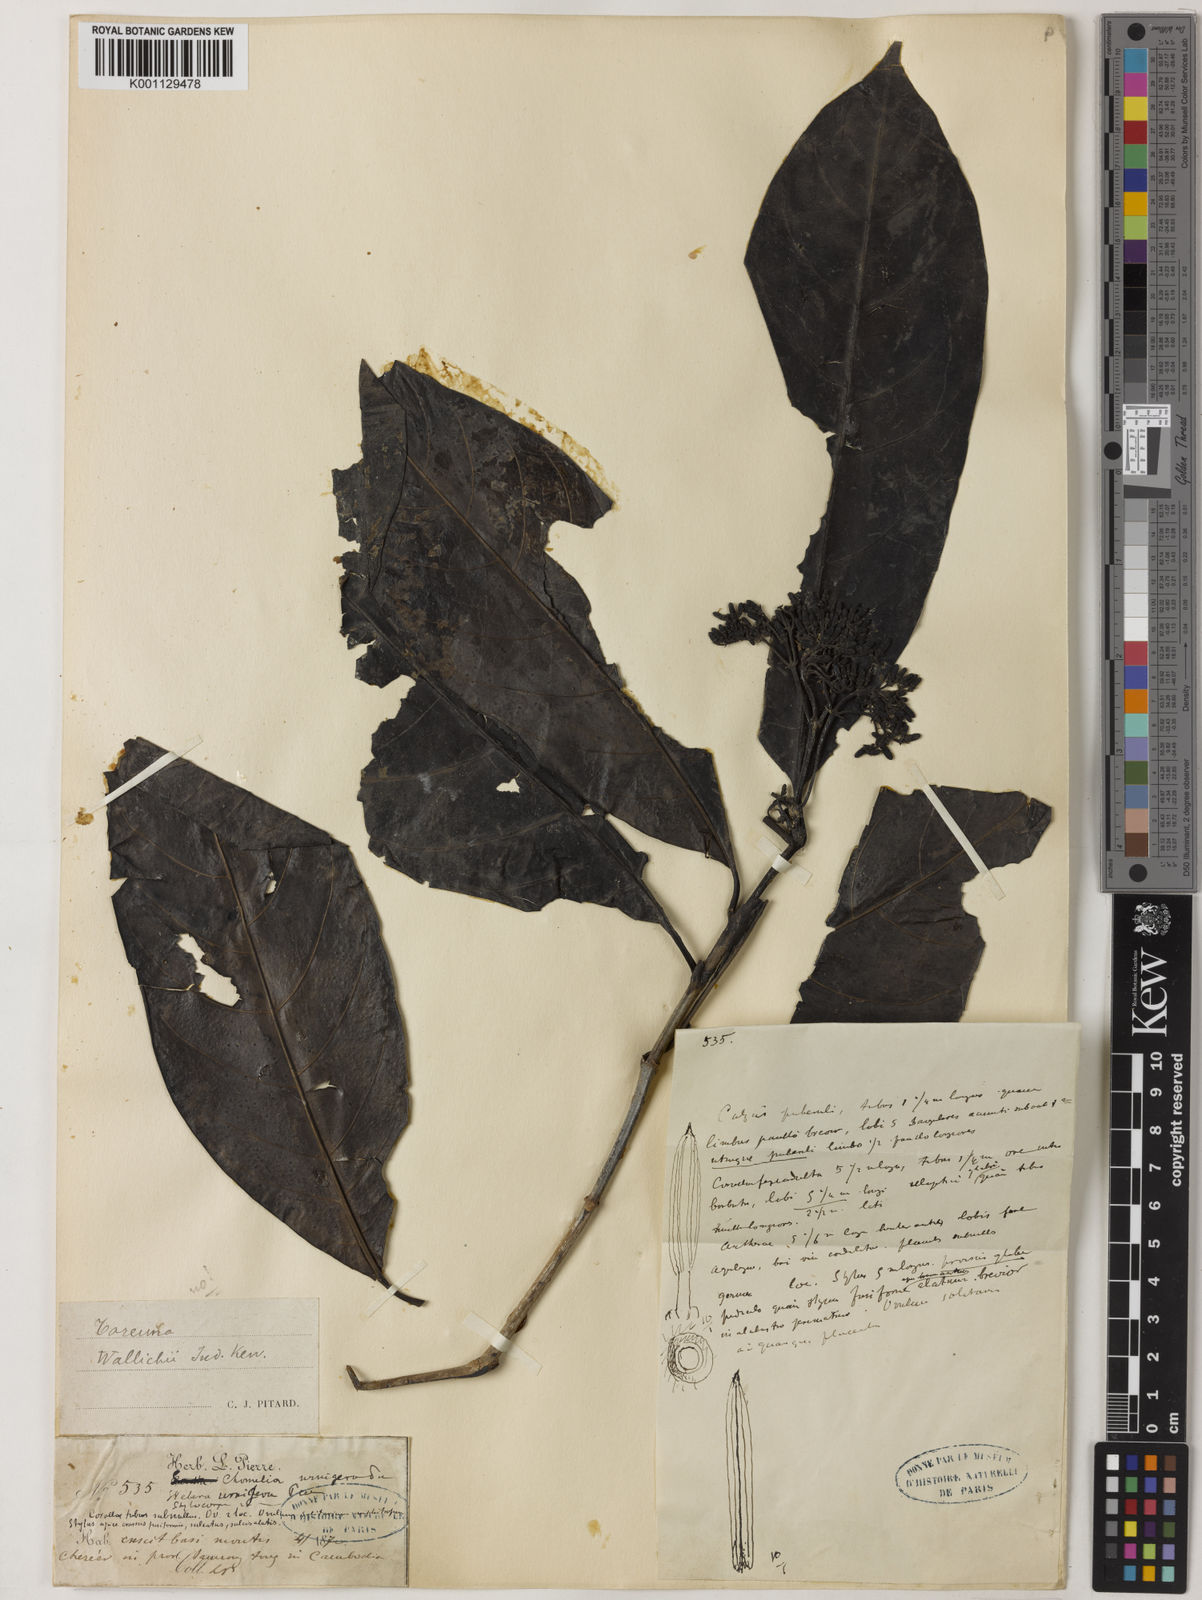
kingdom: Plantae
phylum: Tracheophyta
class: Magnoliopsida
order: Gentianales
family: Rubiaceae
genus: Tarenna
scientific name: Tarenna
